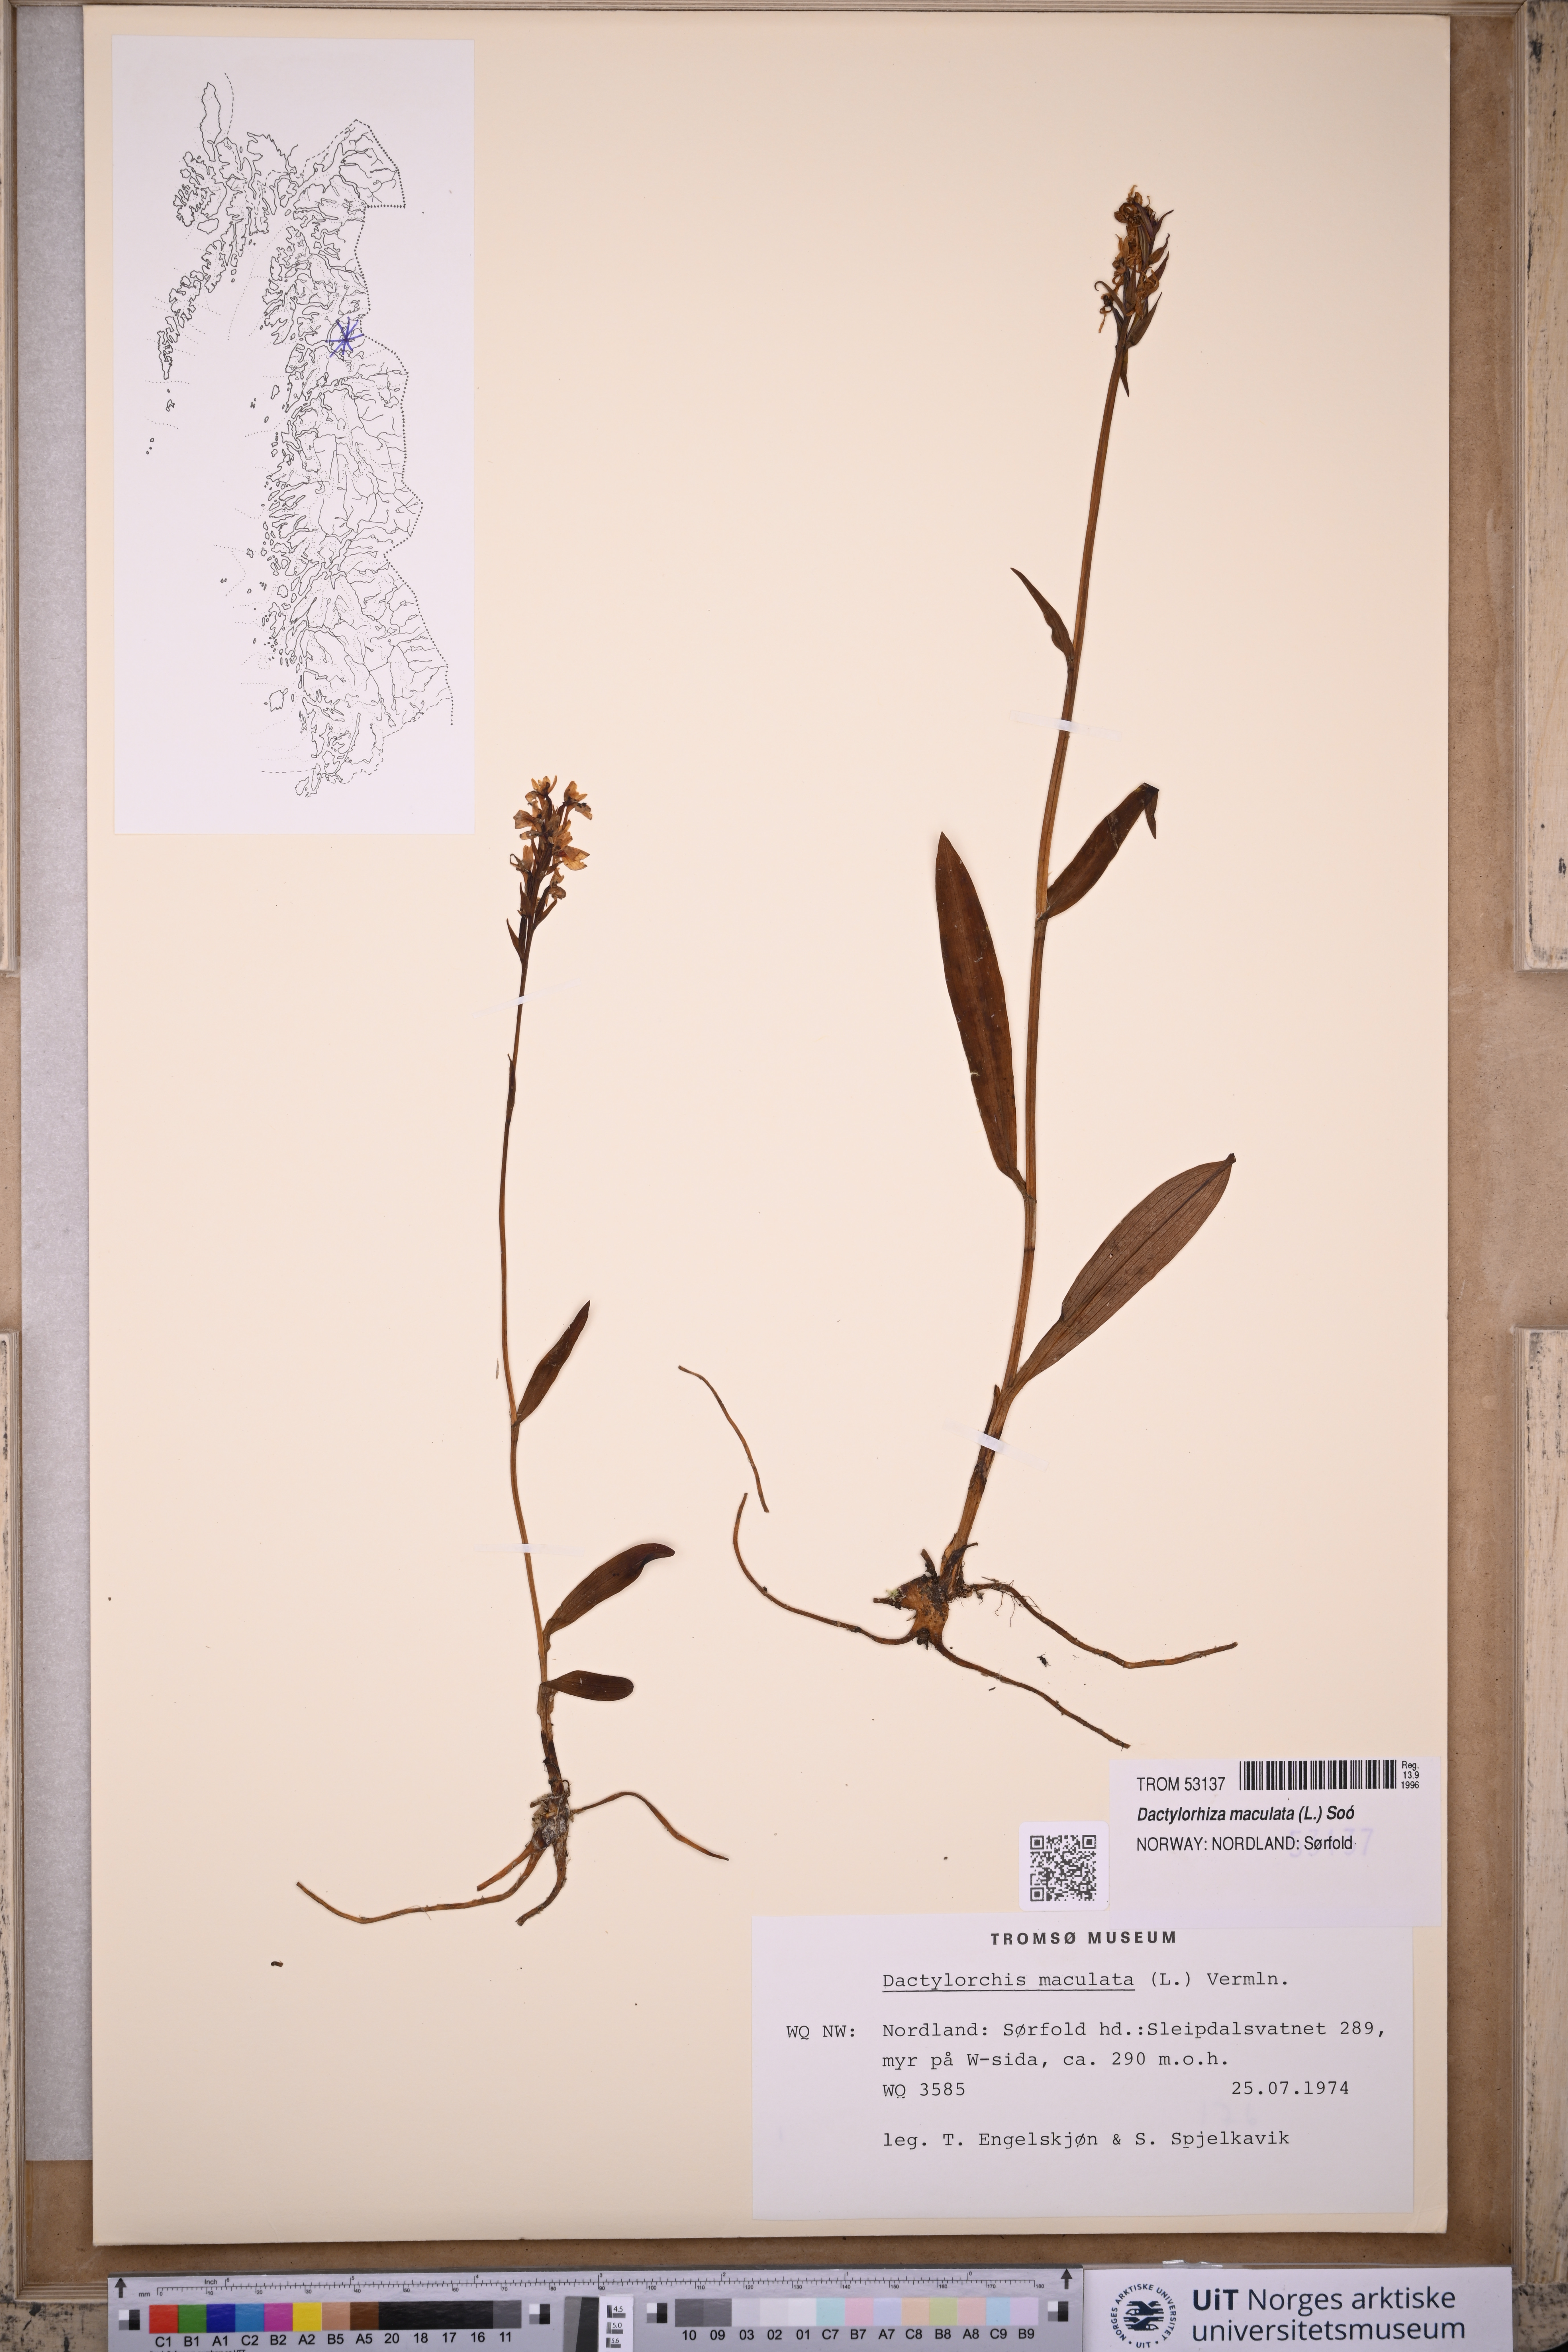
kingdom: Plantae
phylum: Tracheophyta
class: Liliopsida
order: Asparagales
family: Orchidaceae
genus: Dactylorhiza
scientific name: Dactylorhiza maculata
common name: Heath spotted-orchid
